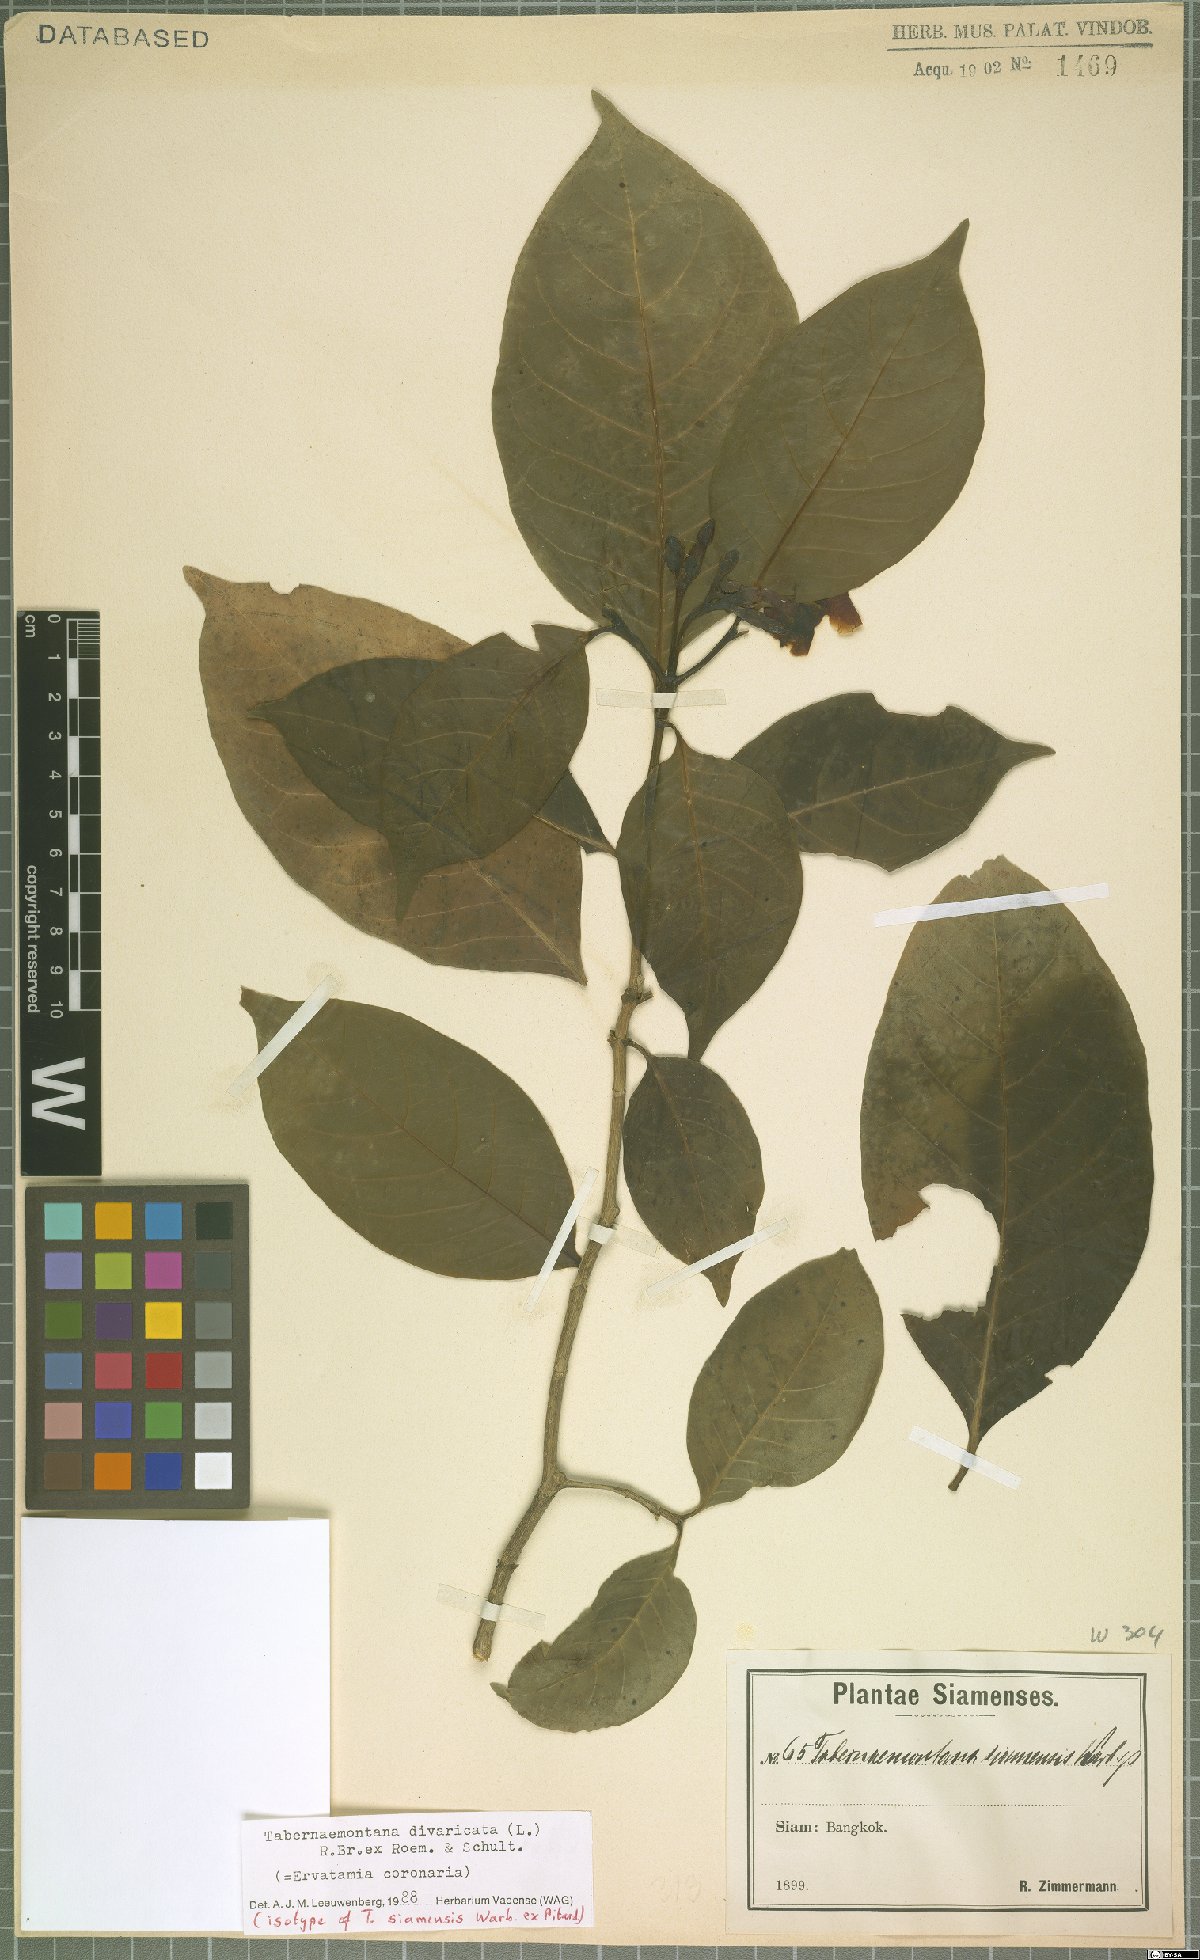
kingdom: Plantae
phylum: Tracheophyta
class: Magnoliopsida
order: Gentianales
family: Apocynaceae
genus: Tabernaemontana
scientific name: Tabernaemontana divaricata
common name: Pinwheelflower
